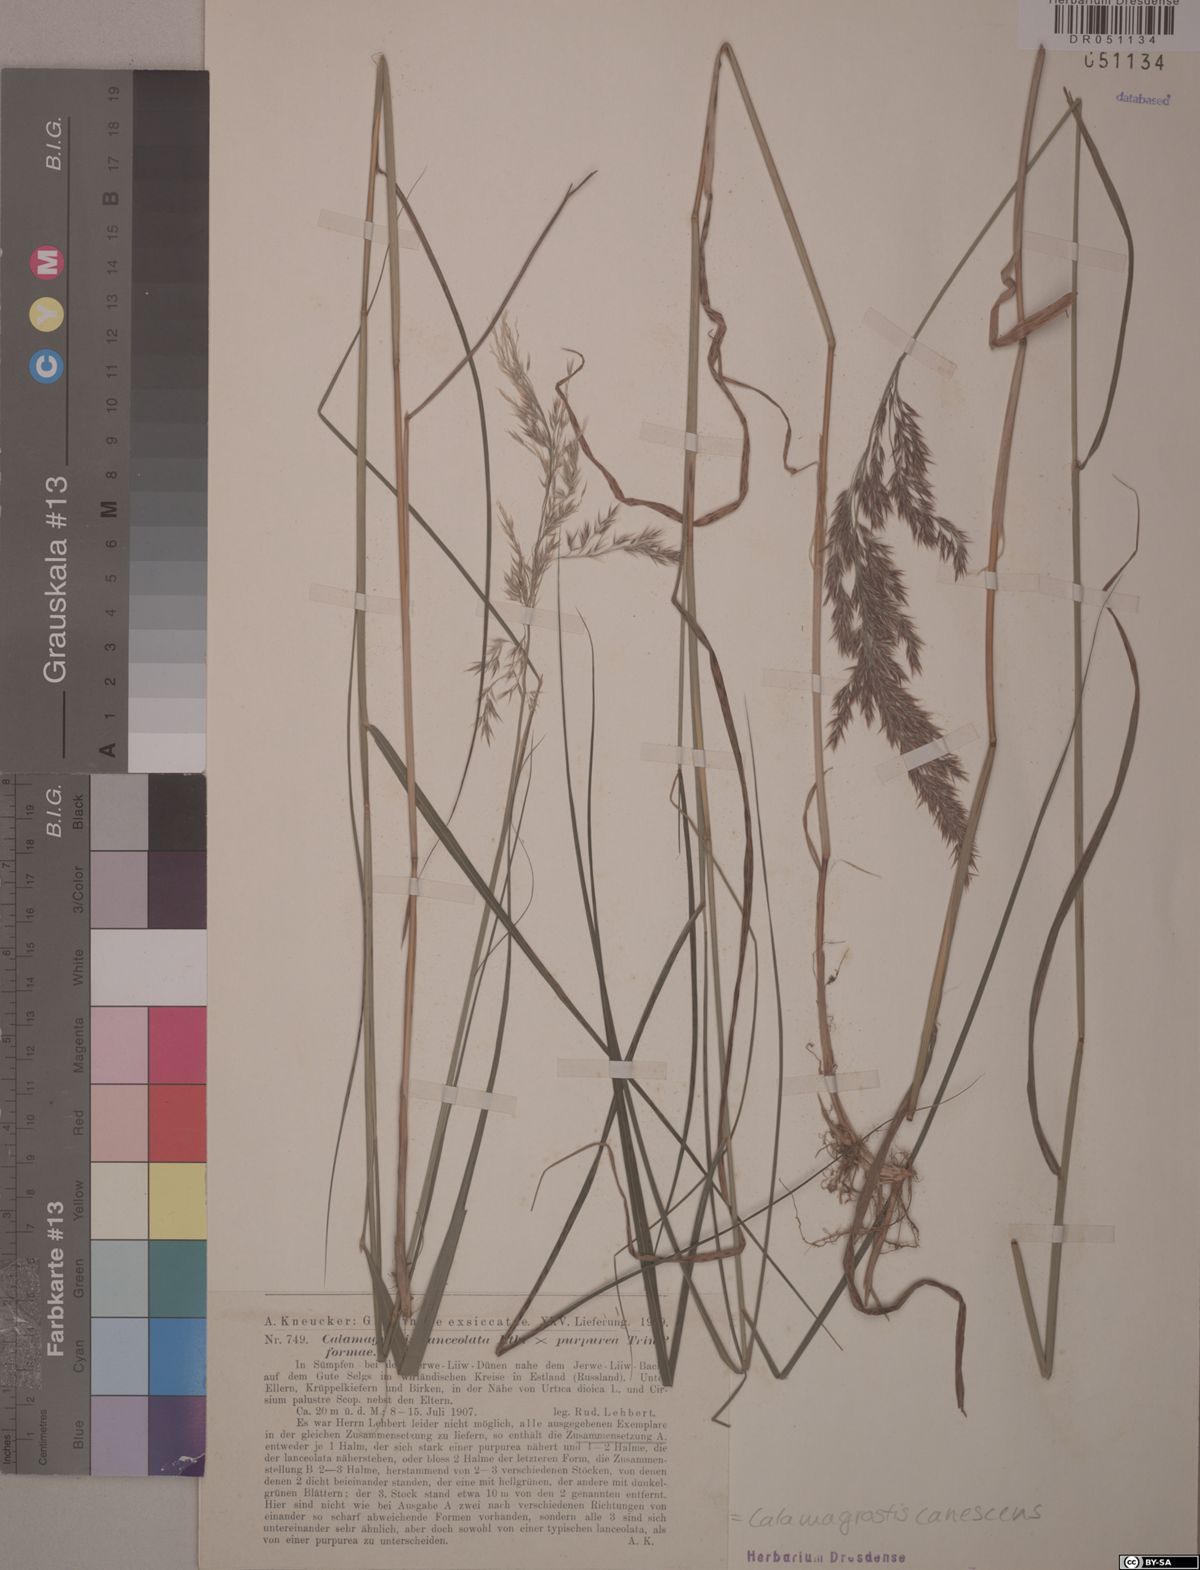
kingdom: Plantae
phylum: Tracheophyta
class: Liliopsida
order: Poales
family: Poaceae
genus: Calamagrostis
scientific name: Calamagrostis canescens
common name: Purple small-reed
